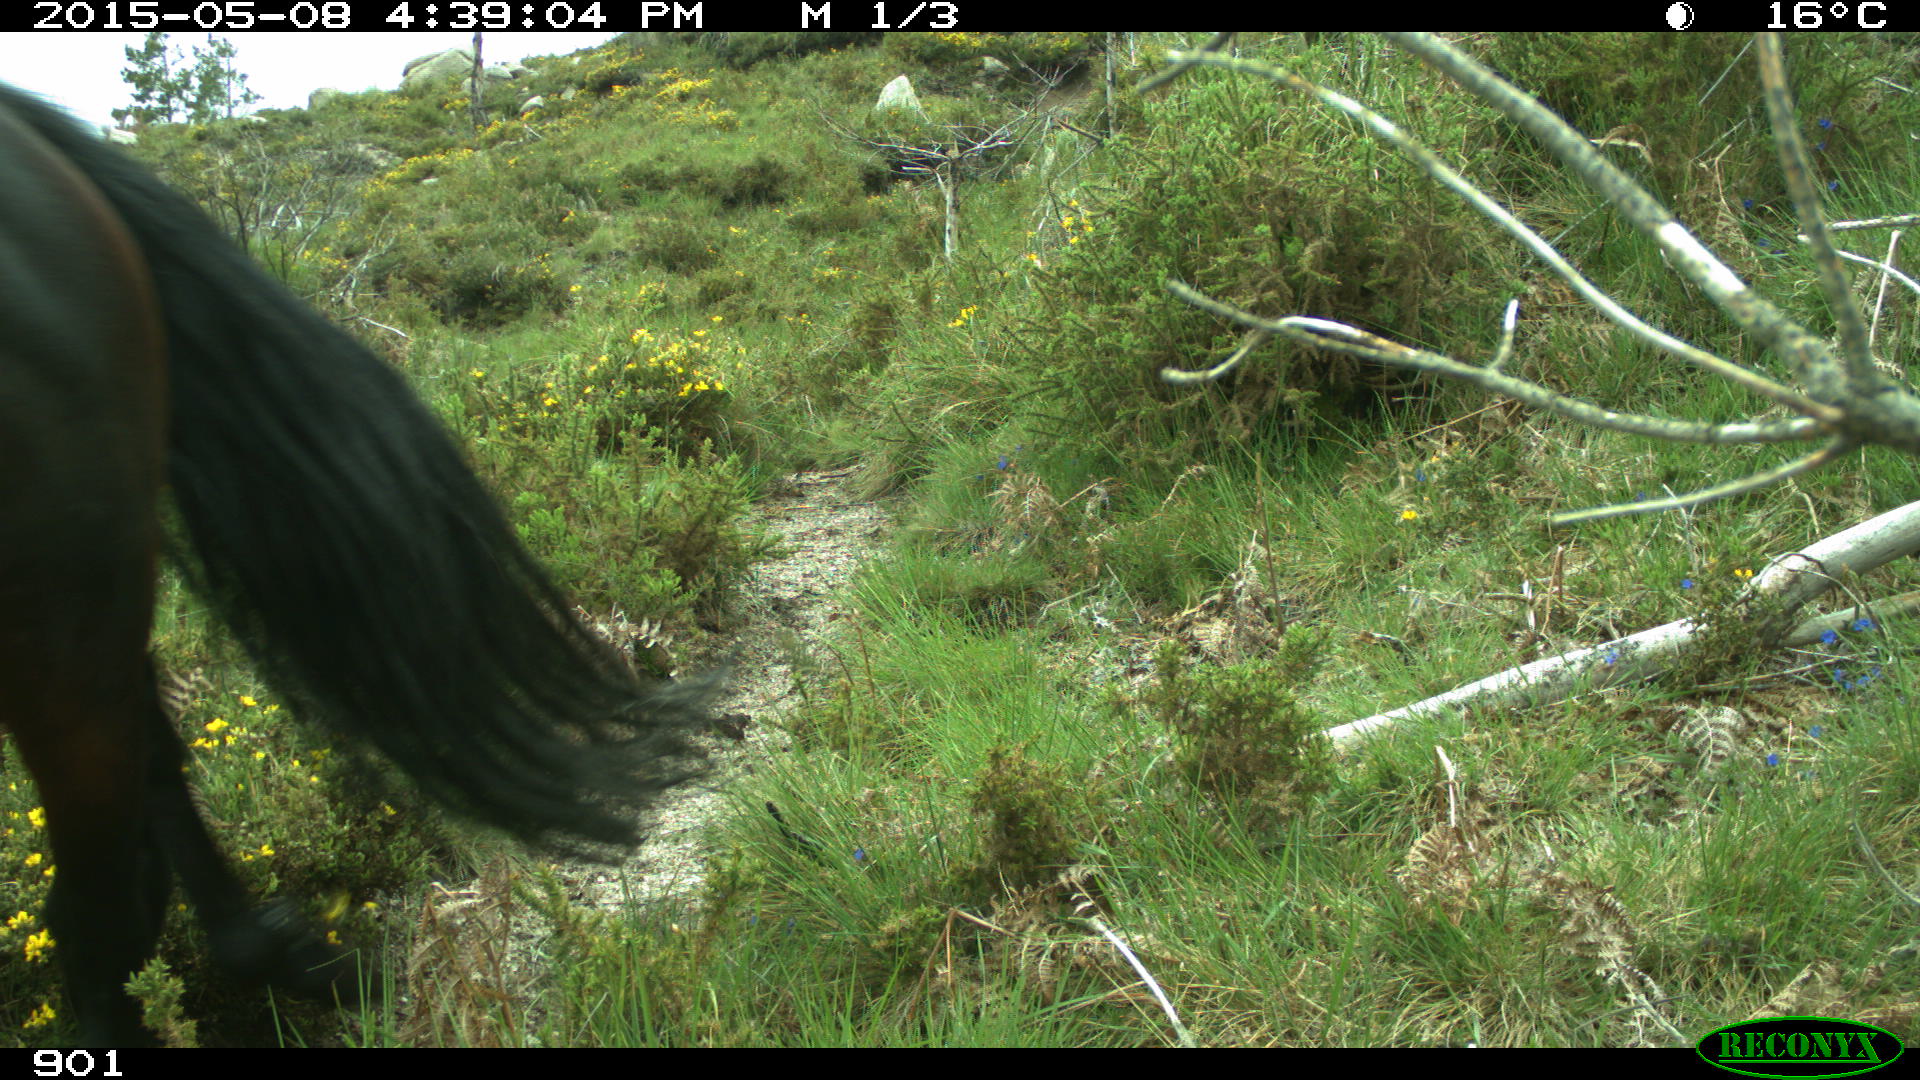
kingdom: Animalia
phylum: Chordata
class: Mammalia
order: Perissodactyla
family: Equidae
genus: Equus
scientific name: Equus caballus
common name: Horse
